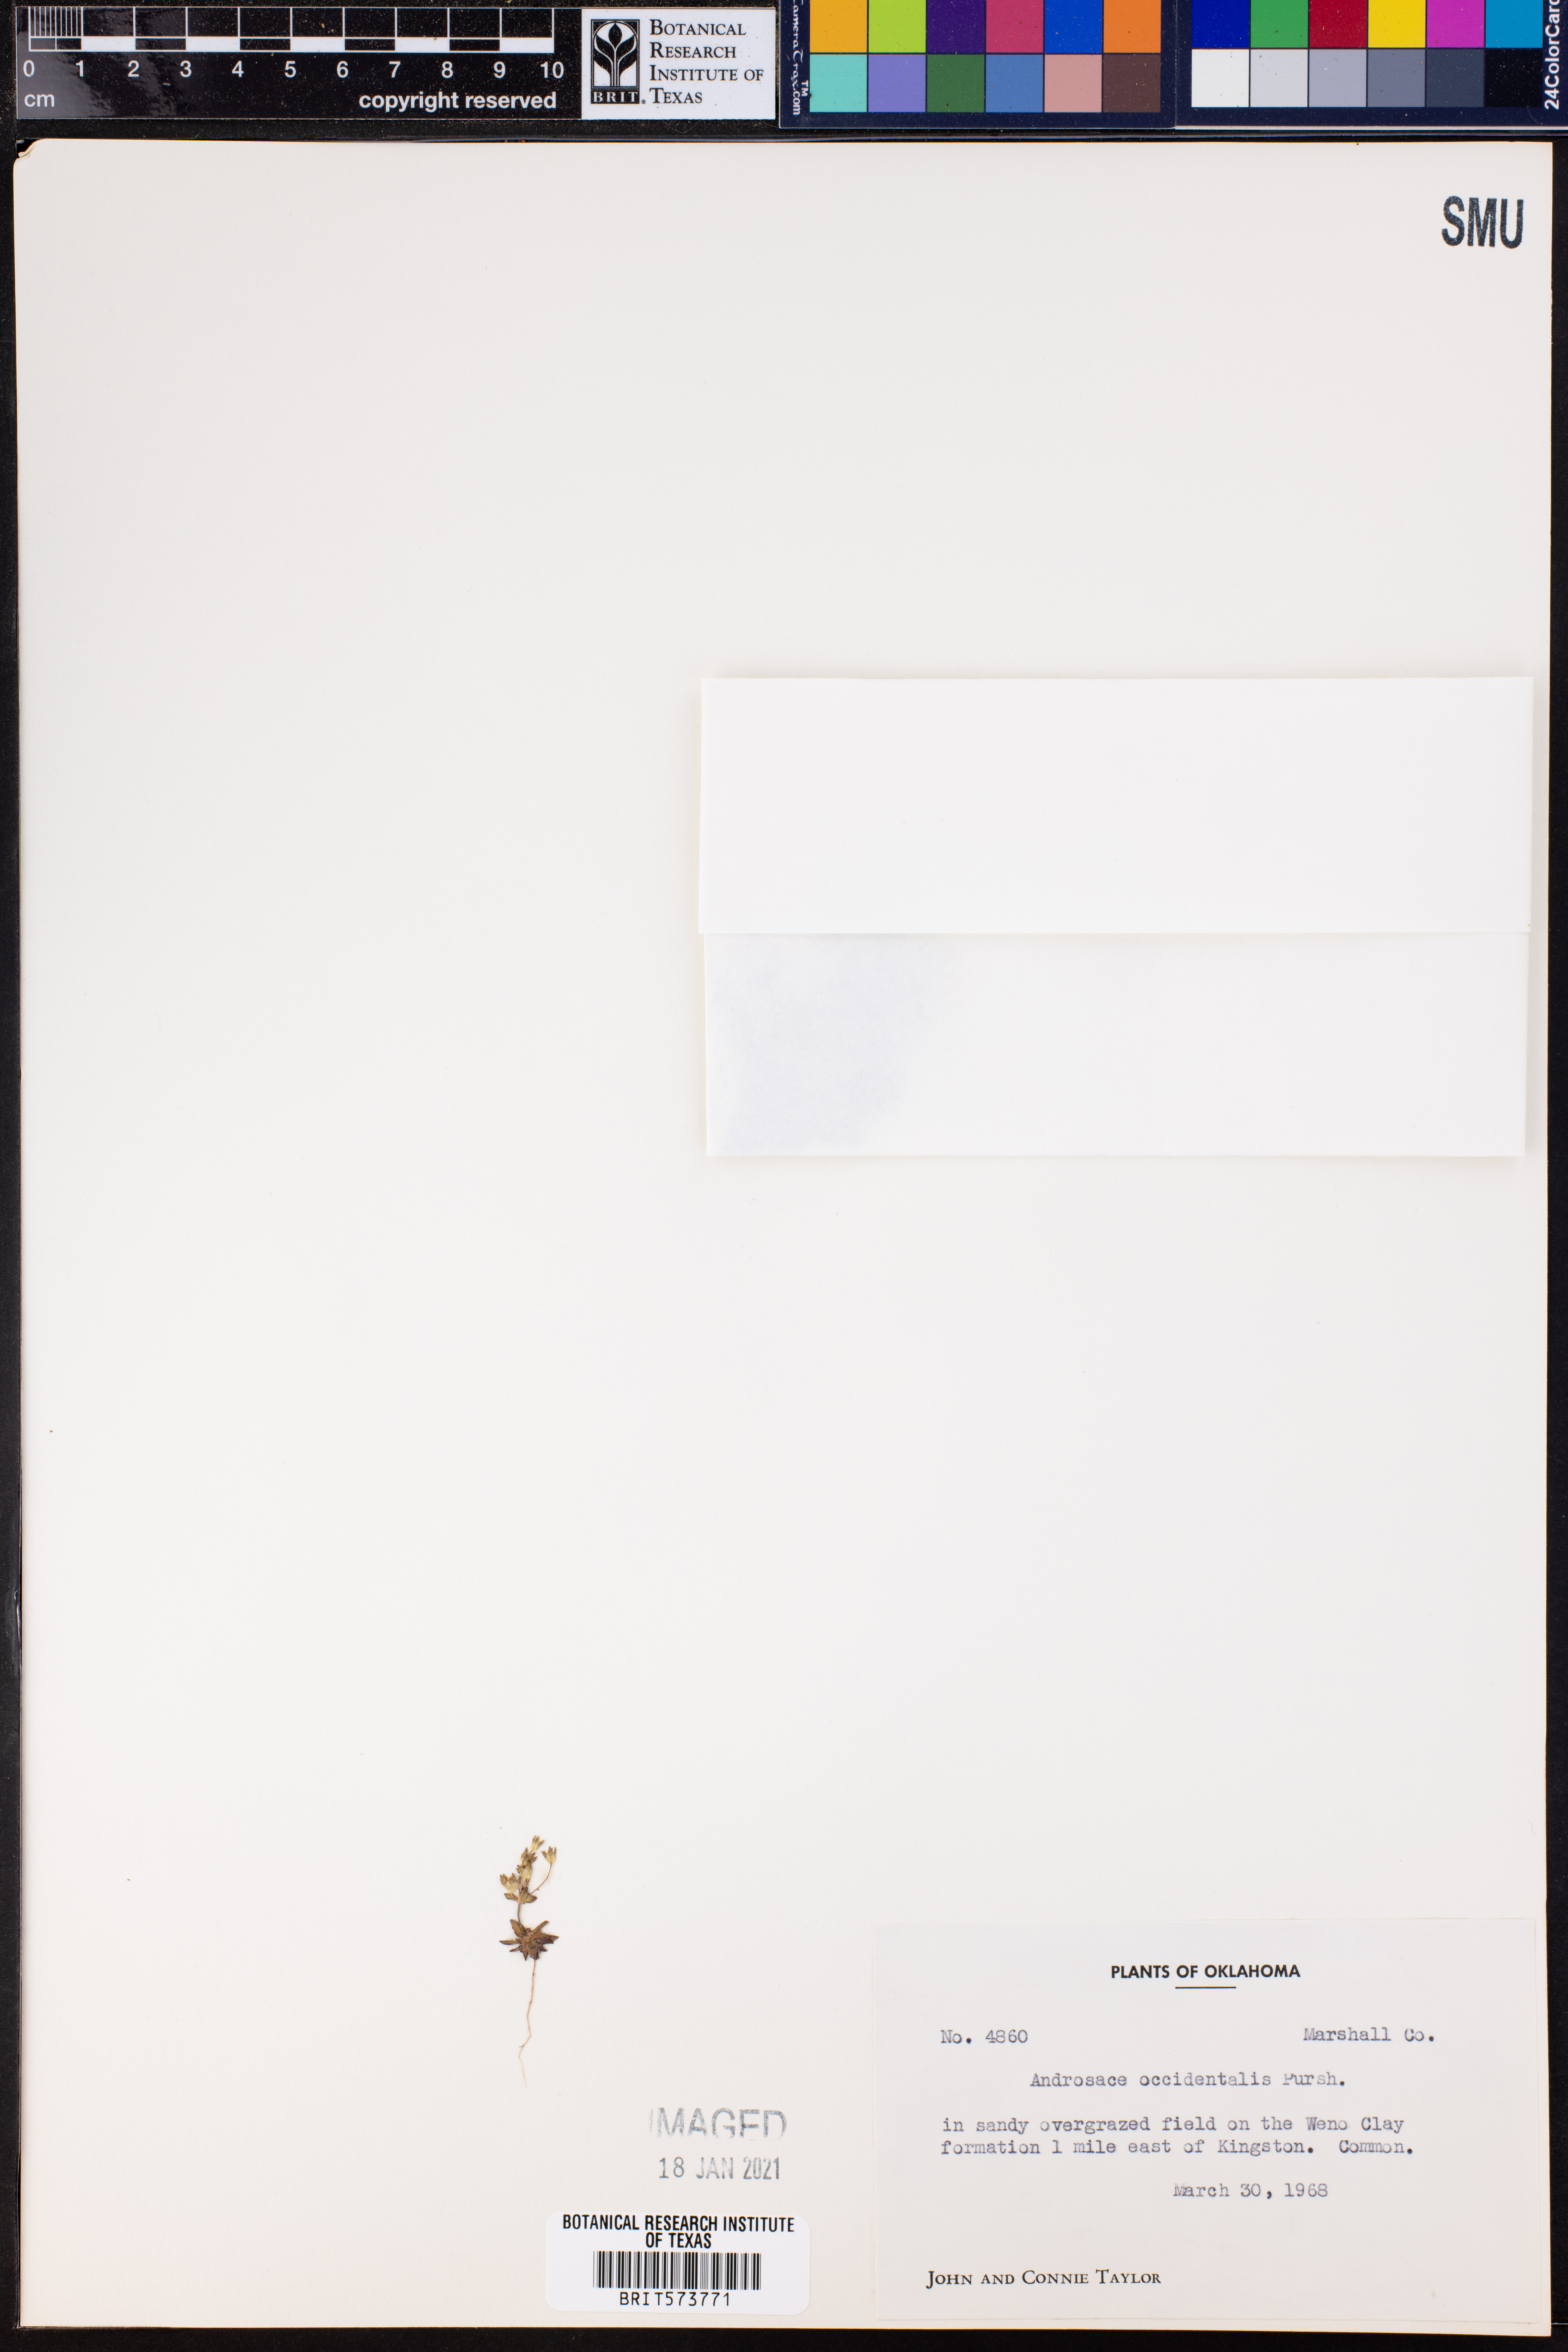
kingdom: Plantae
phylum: Tracheophyta
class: Magnoliopsida
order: Ericales
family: Primulaceae
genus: Androsace
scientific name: Androsace occidentalis
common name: West rock-jasmine
